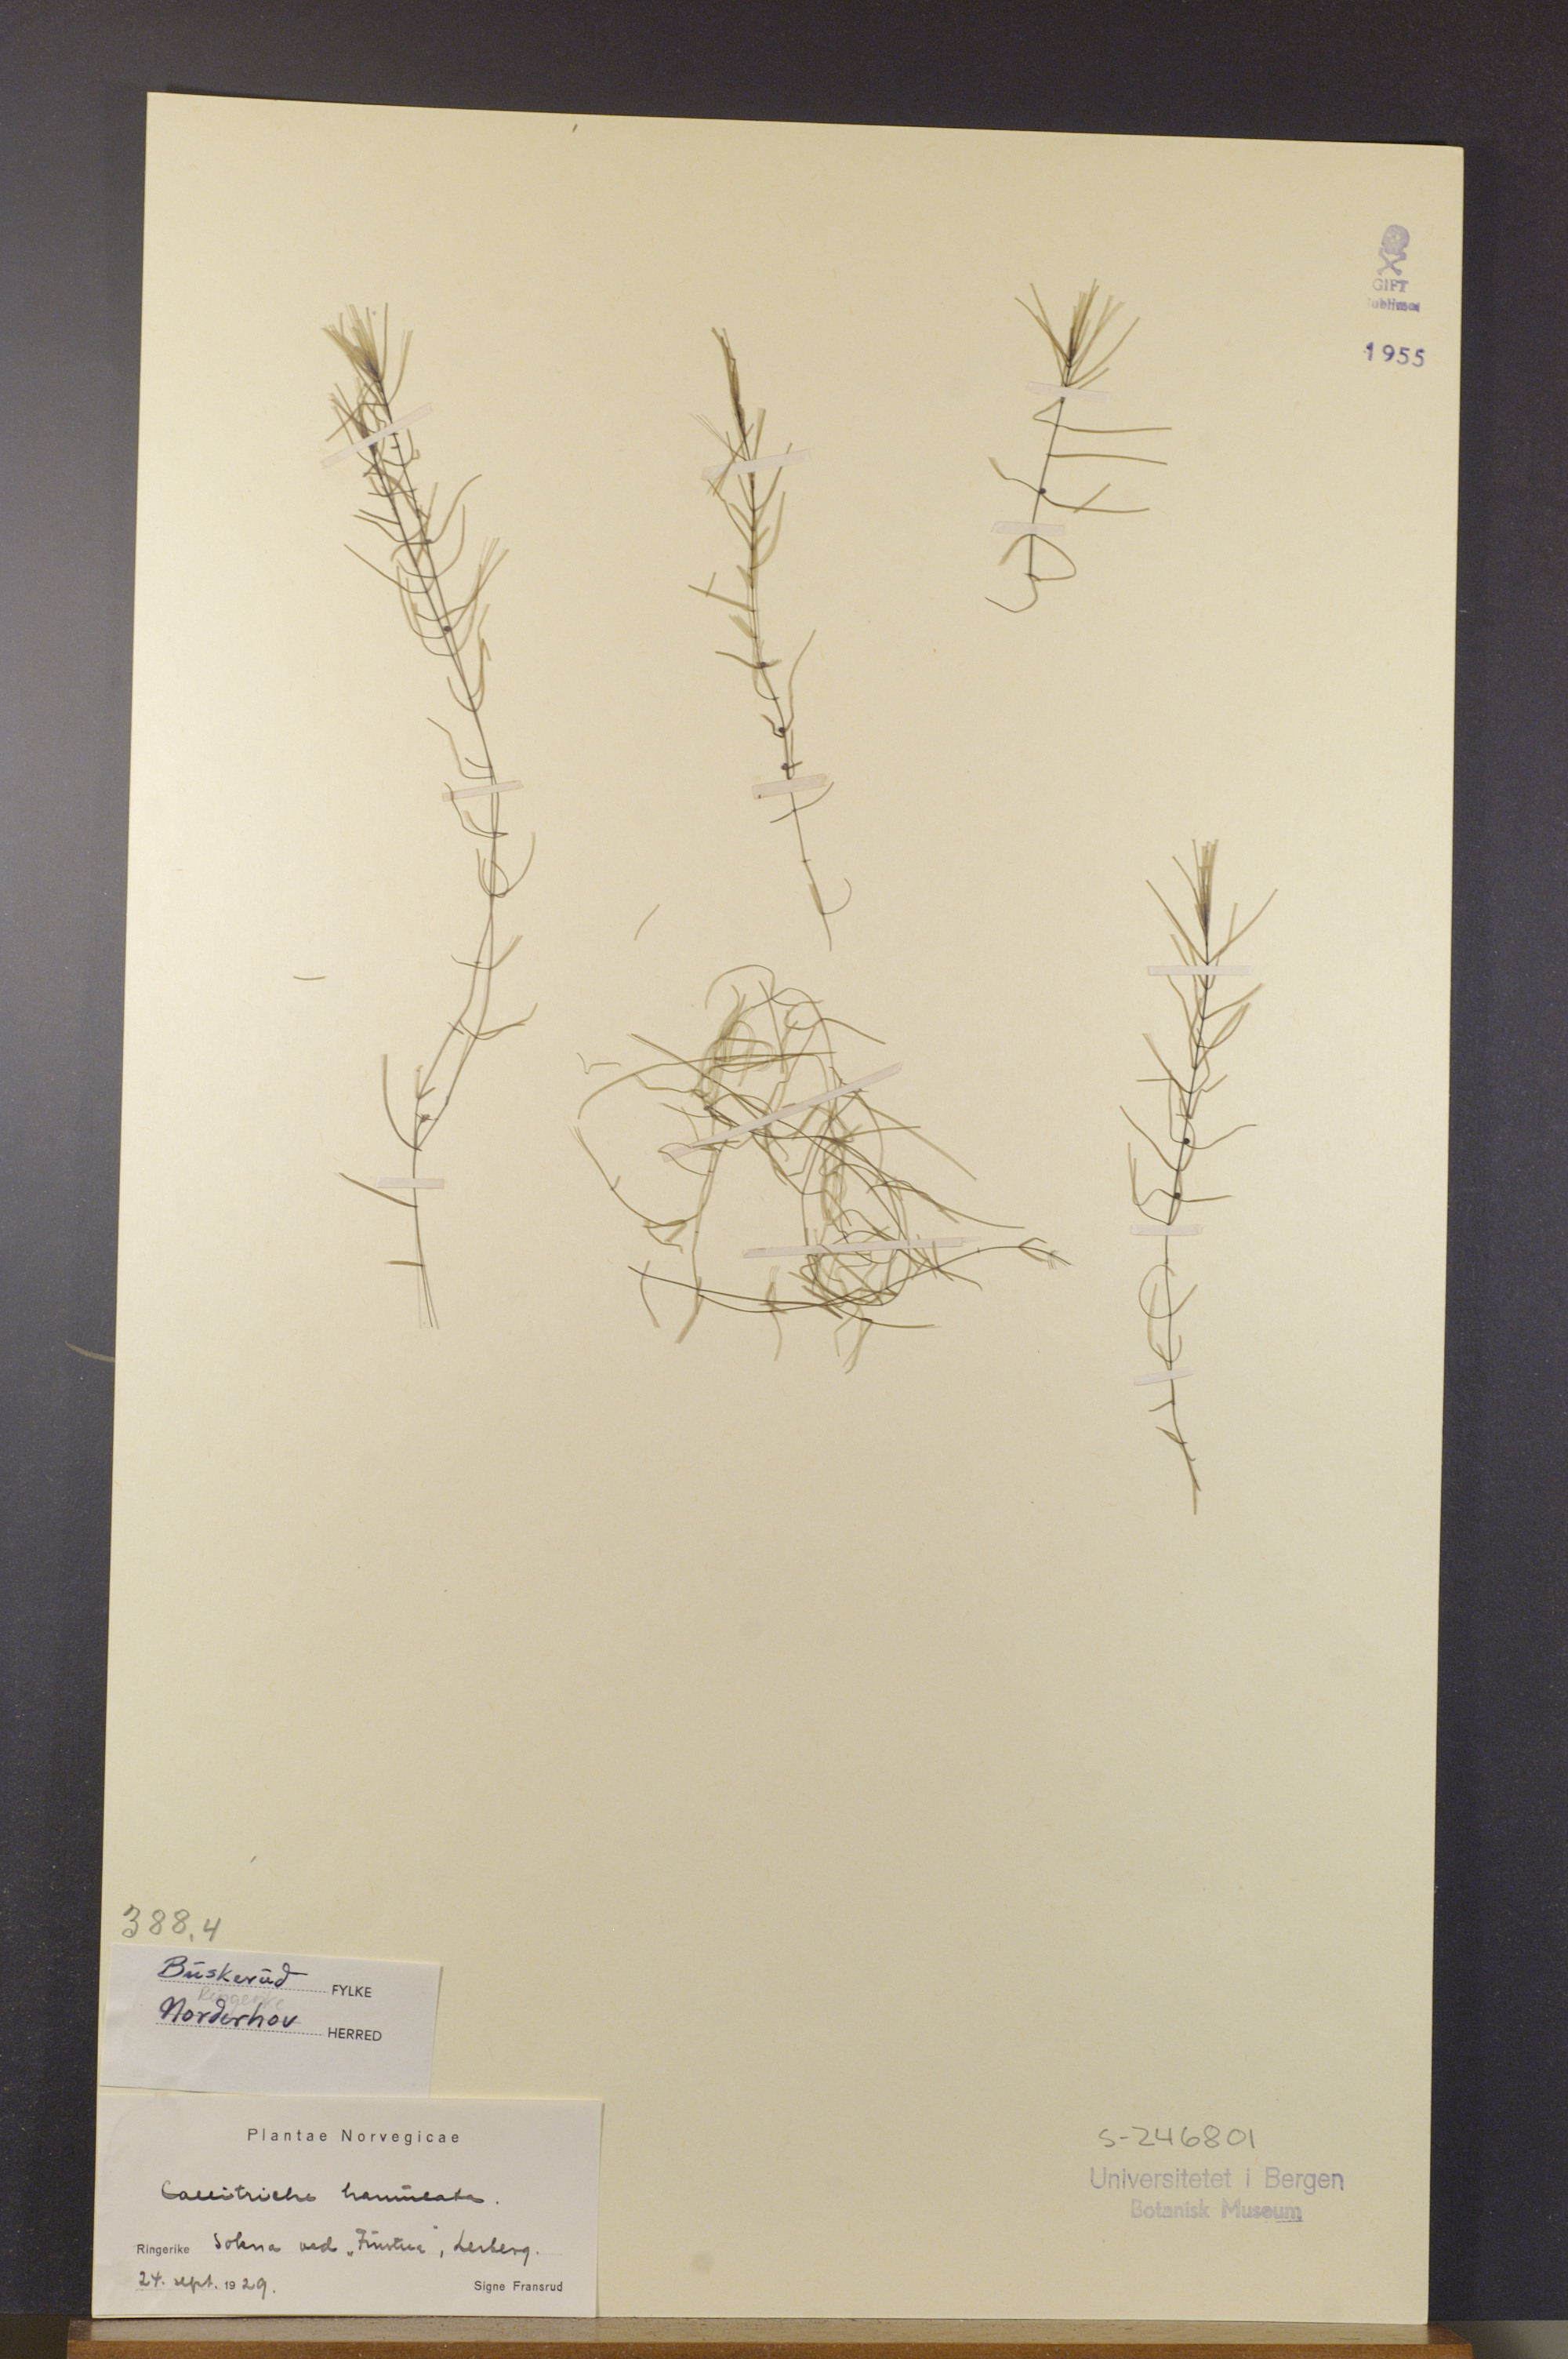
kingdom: Plantae
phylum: Tracheophyta
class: Magnoliopsida
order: Lamiales
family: Plantaginaceae
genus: Callitriche
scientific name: Callitriche hamulata
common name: Intermediate water-starwort
